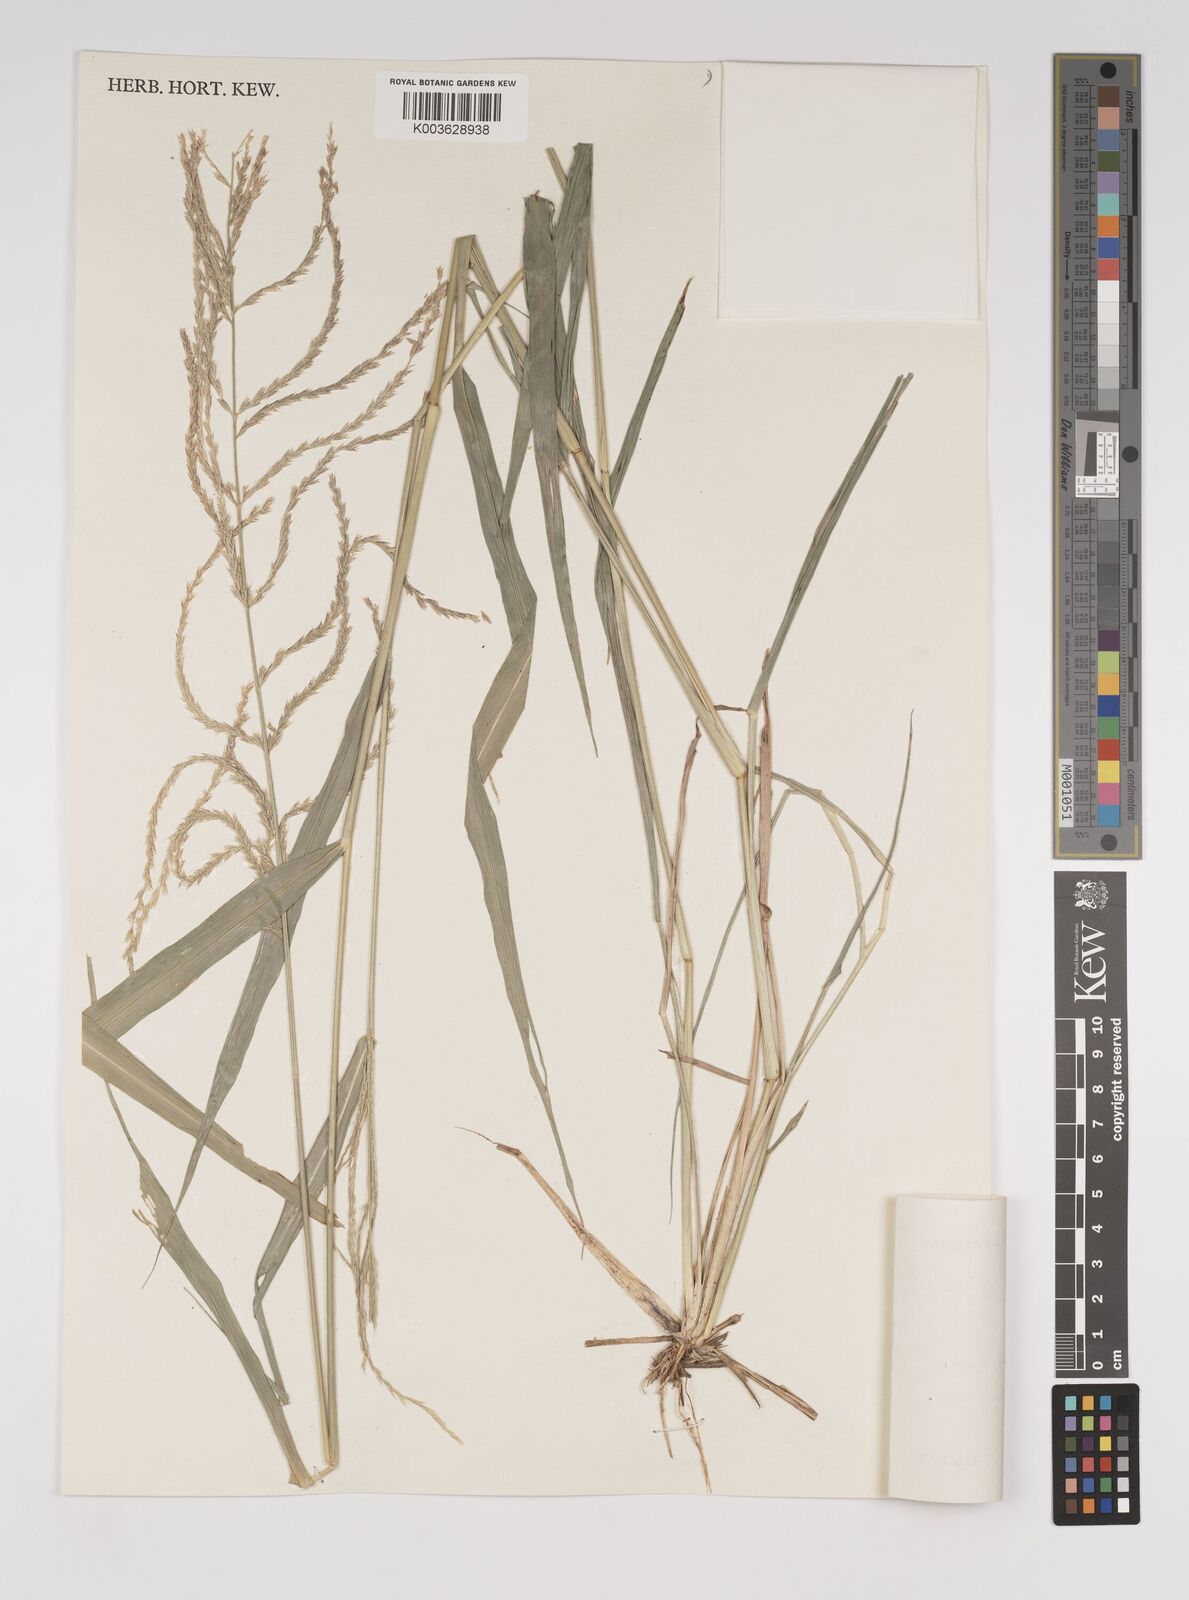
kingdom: Plantae
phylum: Tracheophyta
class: Liliopsida
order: Poales
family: Poaceae
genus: Leptochloa
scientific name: Leptochloa virgata
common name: Tropical sprangletop
